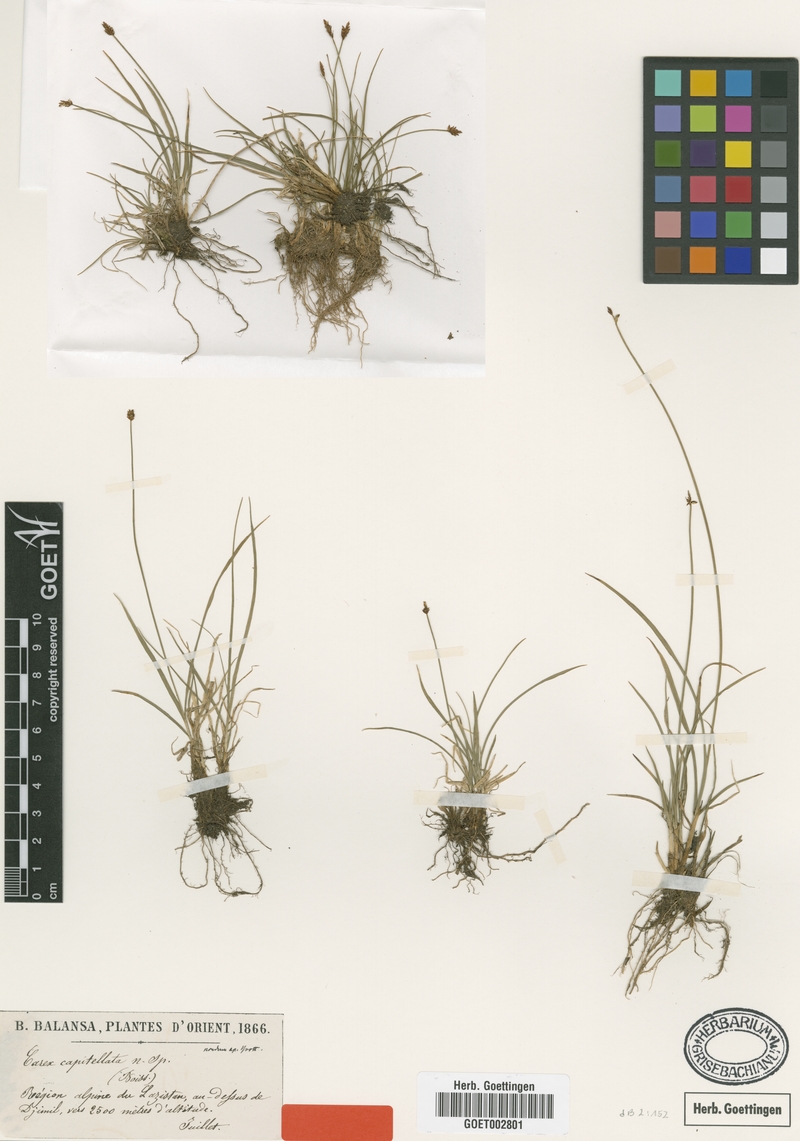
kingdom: Plantae
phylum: Tracheophyta
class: Liliopsida
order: Poales
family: Cyperaceae
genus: Carex
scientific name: Carex capitellata
